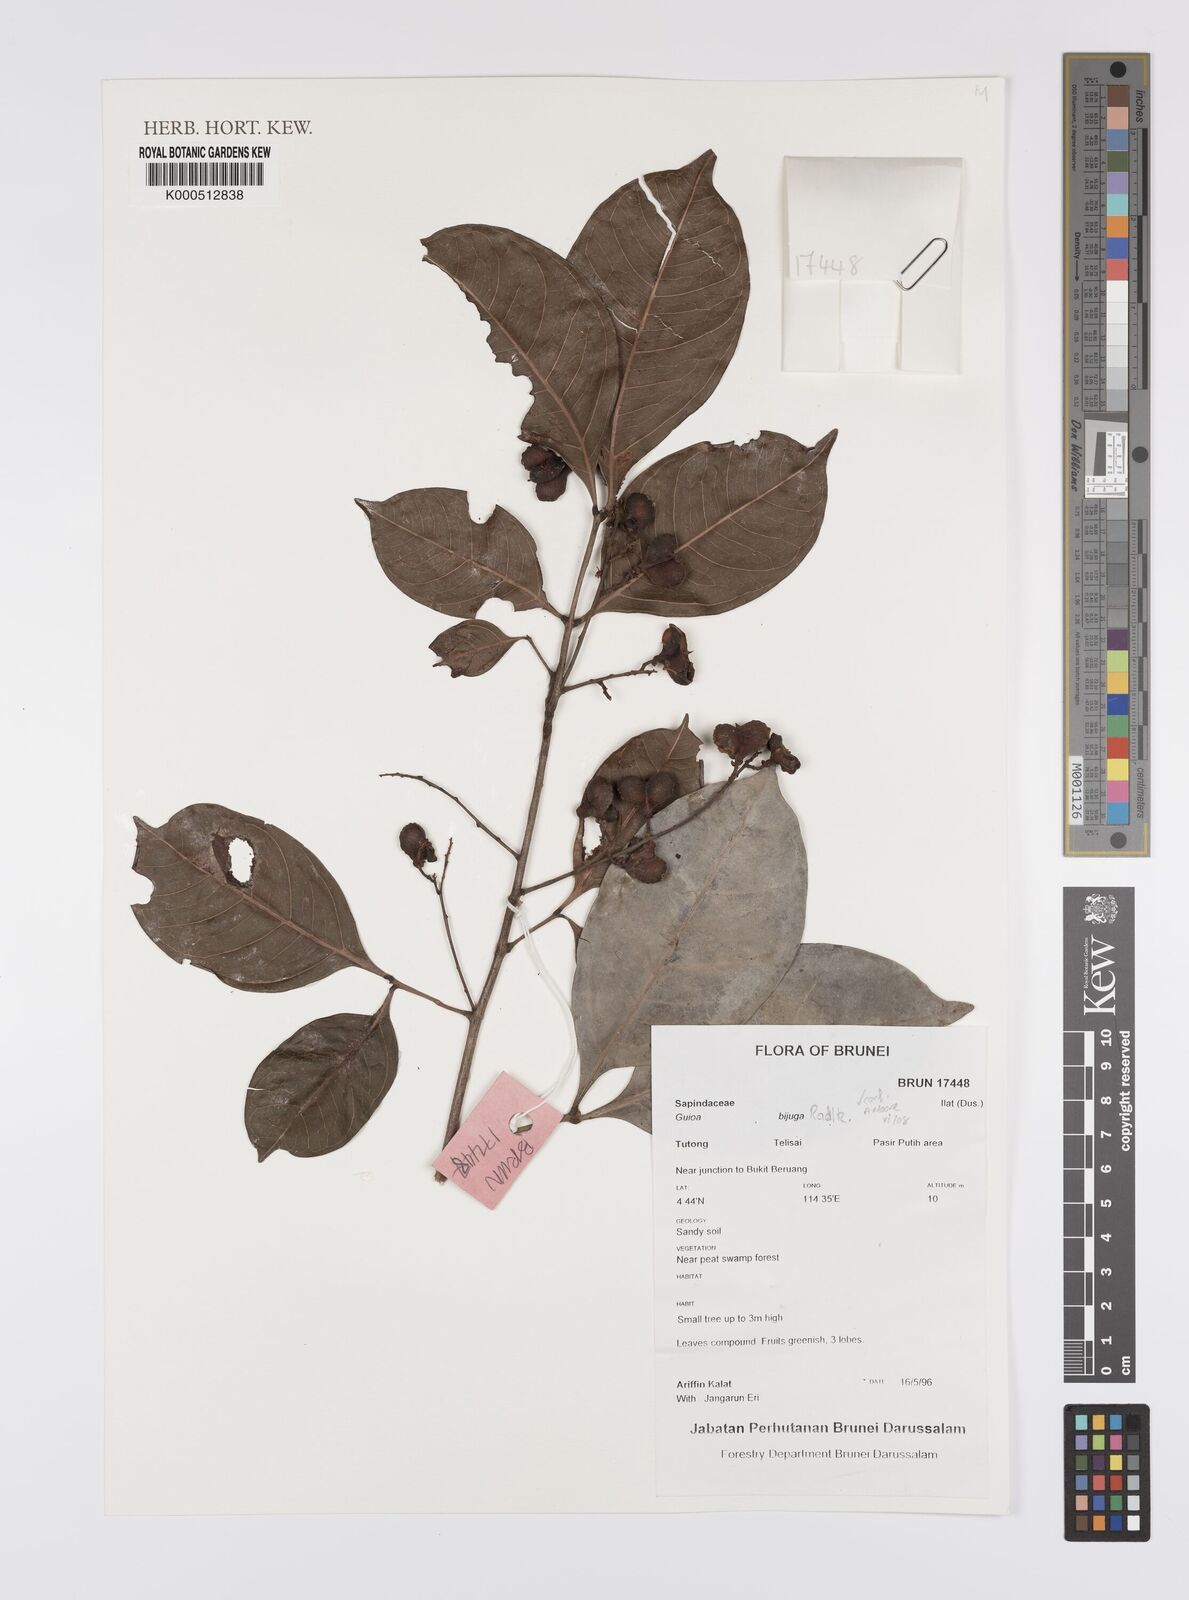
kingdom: Plantae
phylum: Tracheophyta
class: Magnoliopsida
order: Sapindales
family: Sapindaceae
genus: Guioa
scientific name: Guioa bijuga
